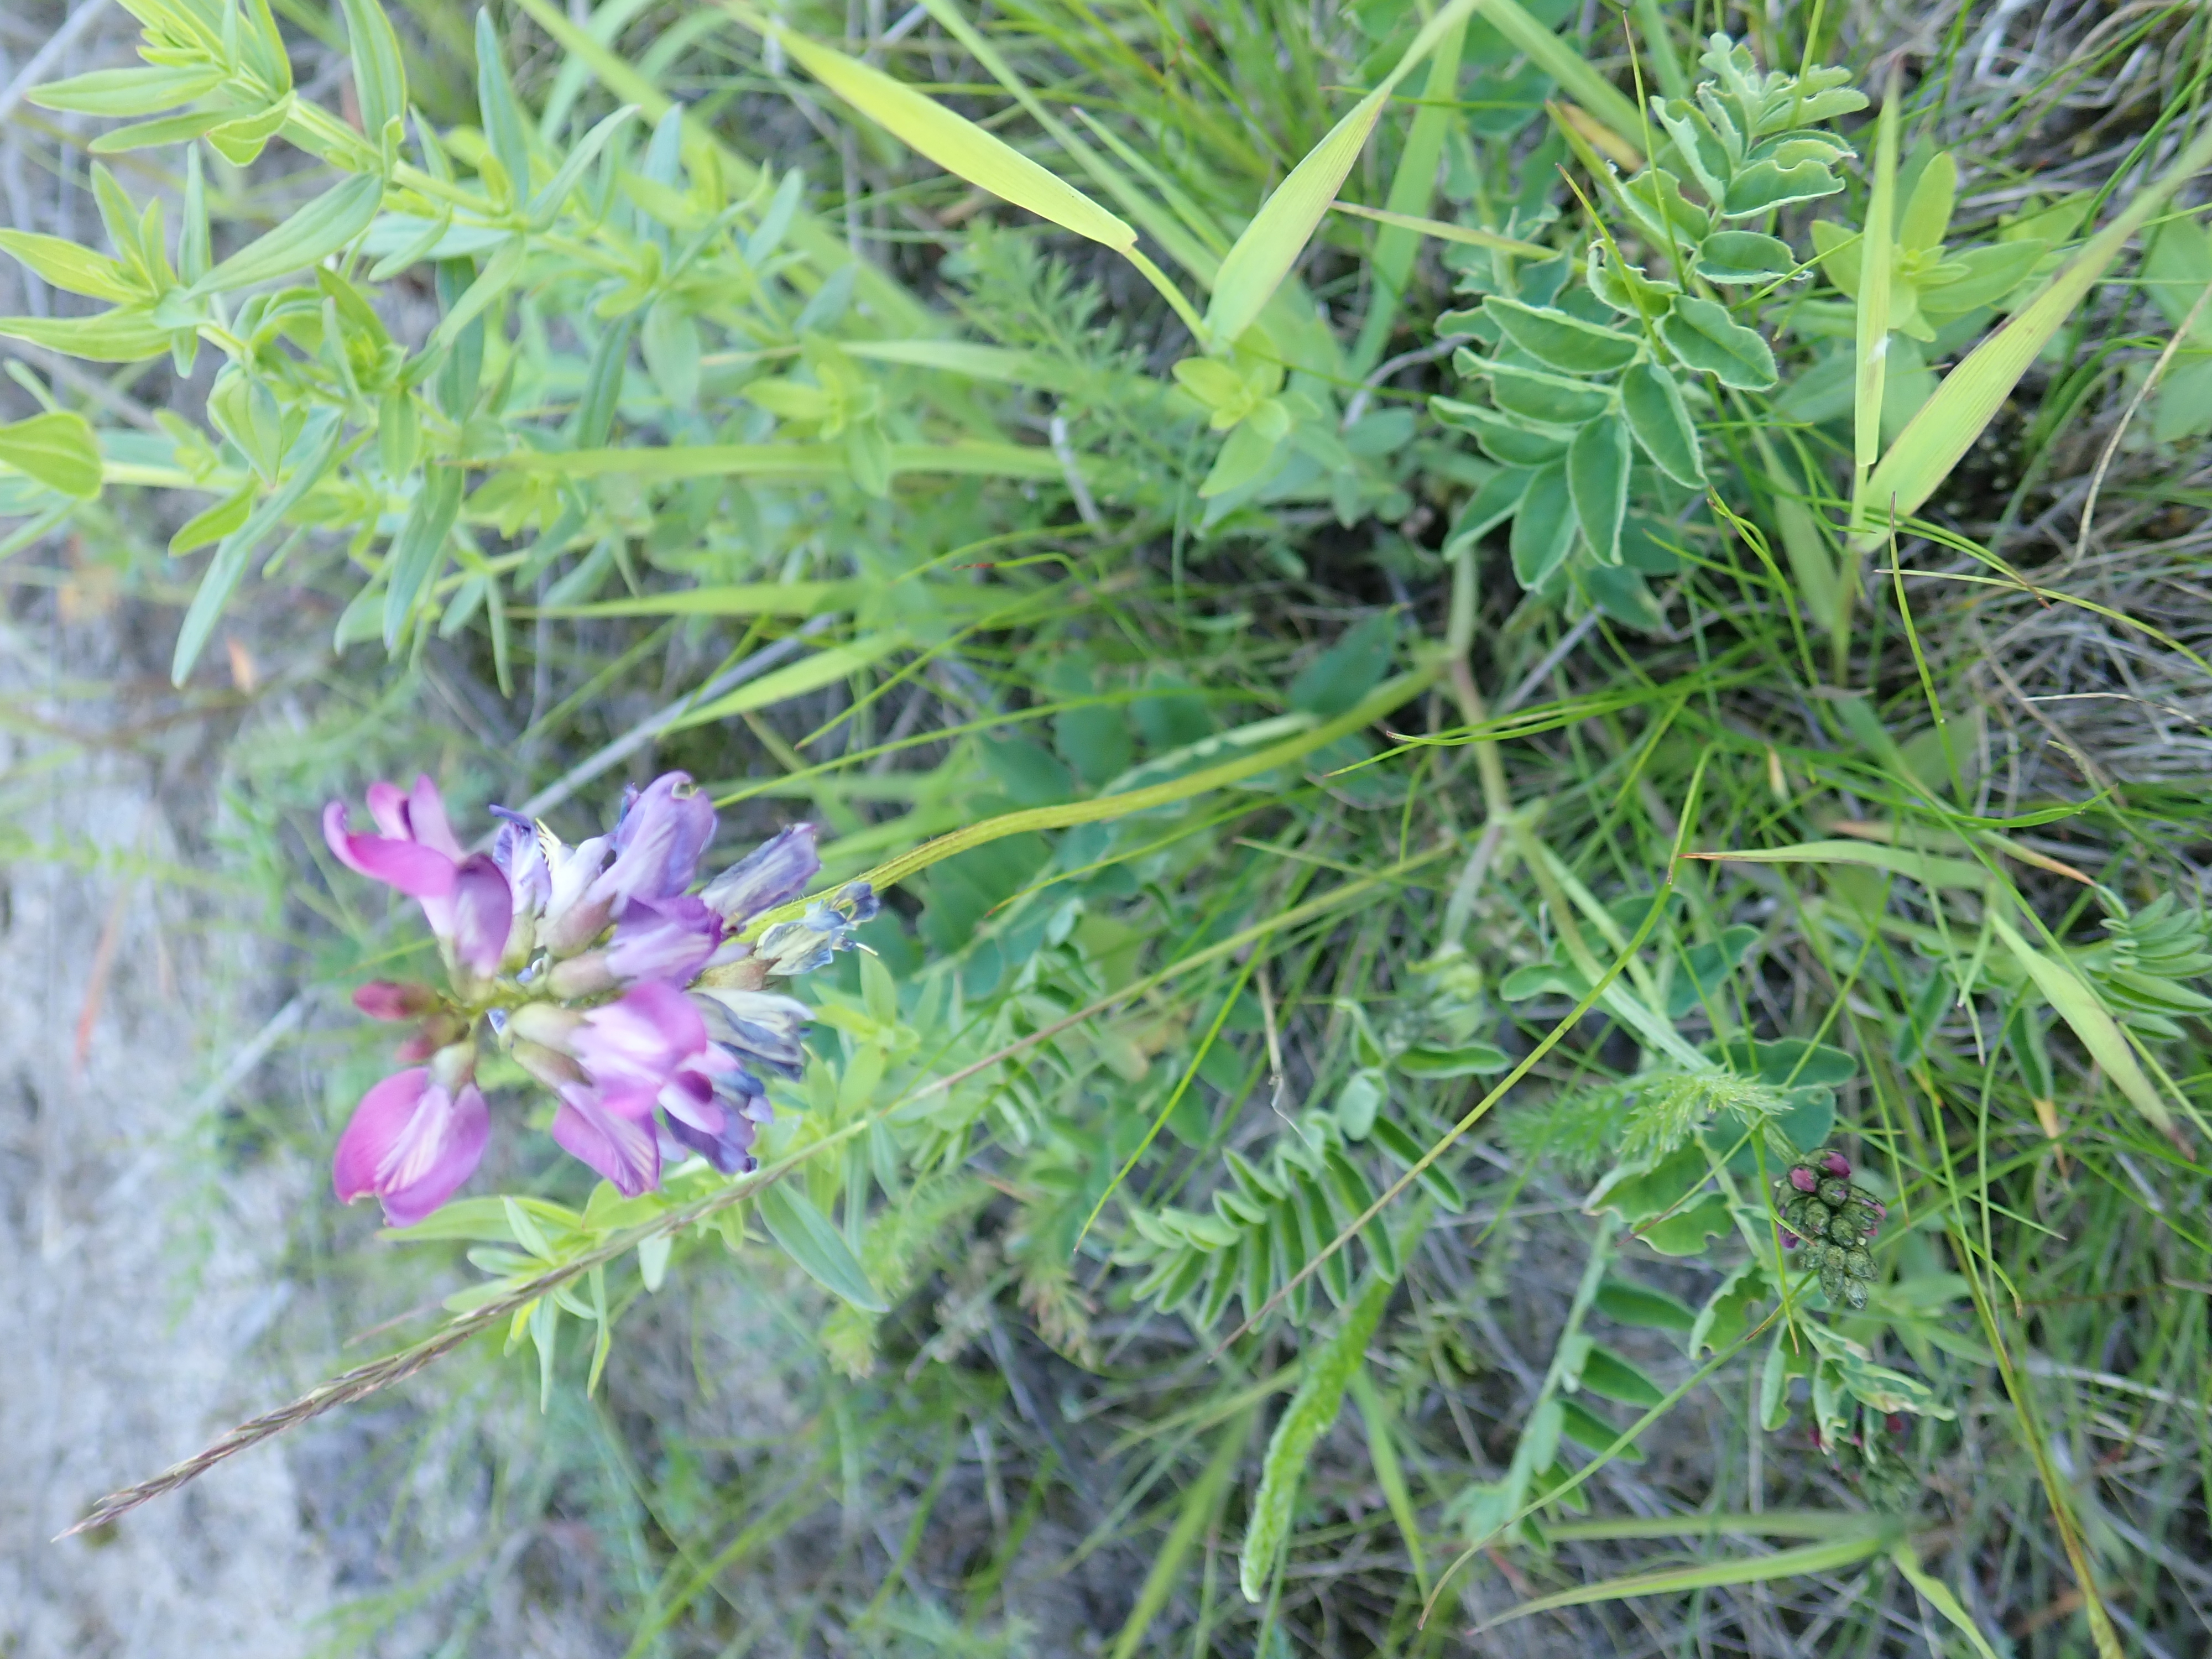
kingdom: Plantae
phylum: Tracheophyta
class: Magnoliopsida
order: Fabales
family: Fabaceae
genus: Astragalus
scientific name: Astragalus alpinus
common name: Alpine milk-vetch
